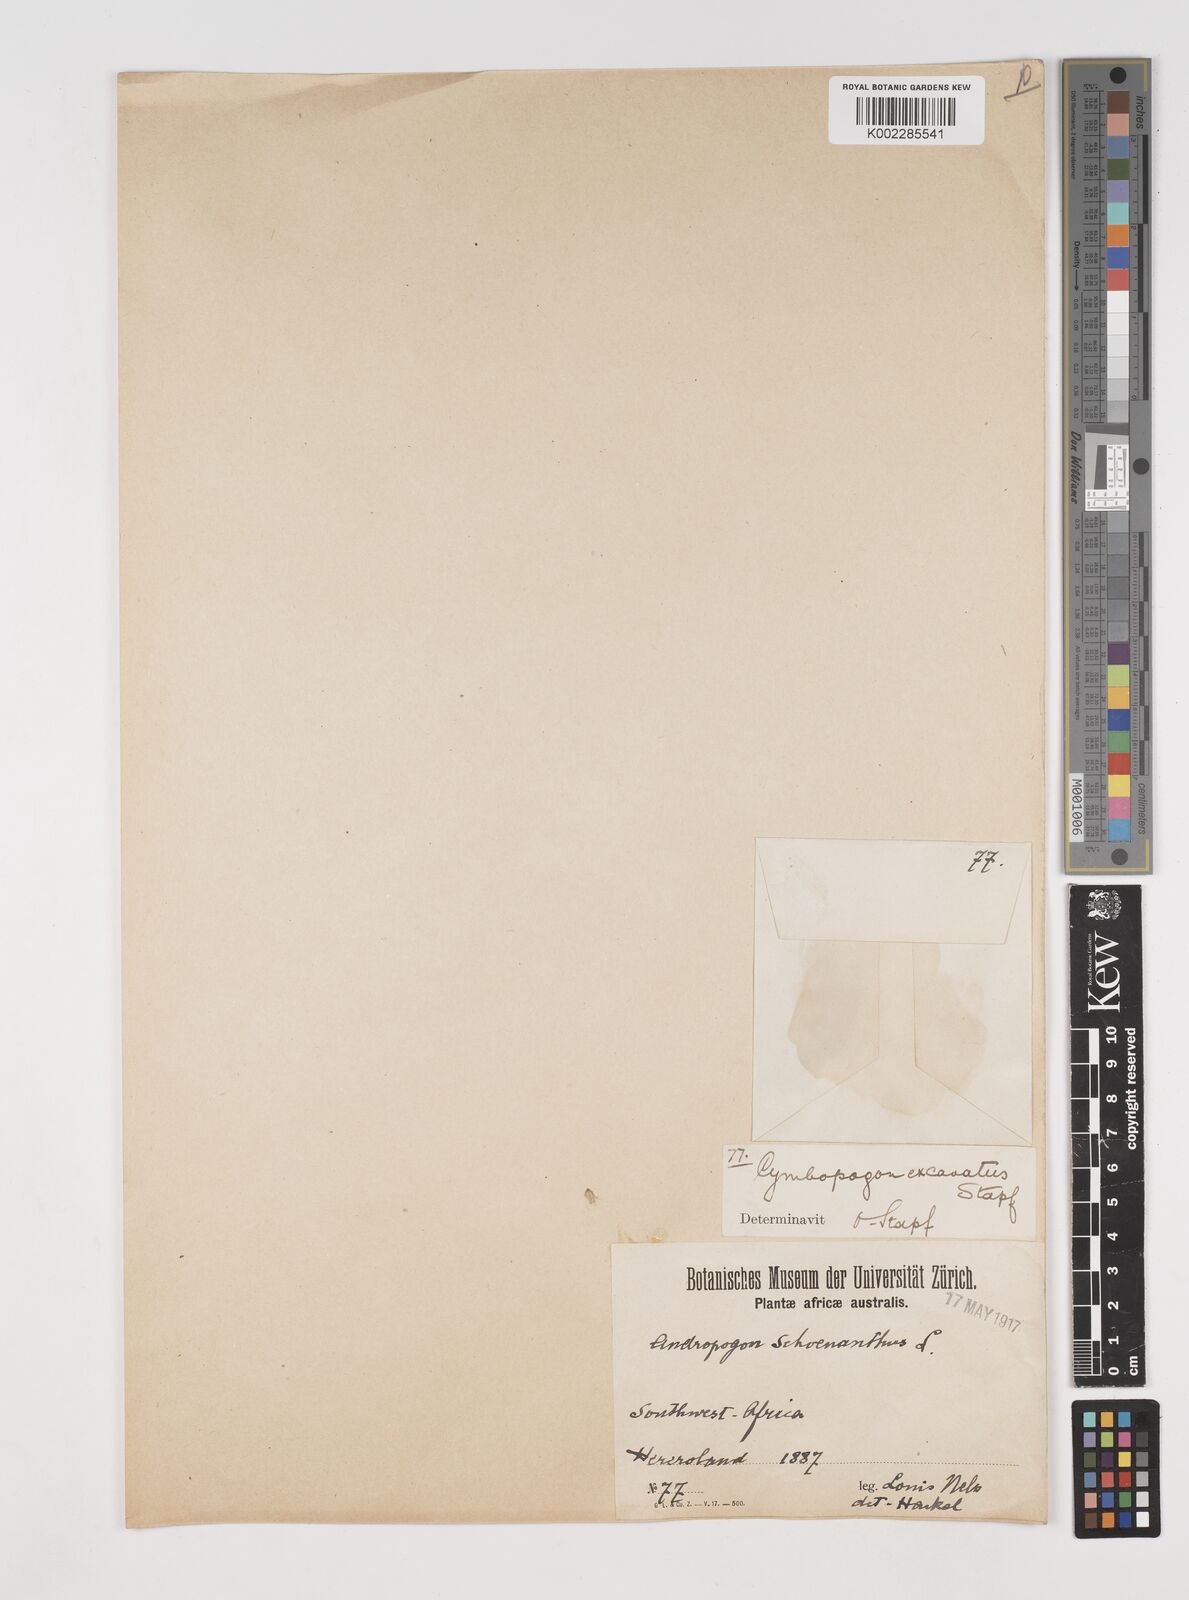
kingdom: Plantae
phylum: Tracheophyta
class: Liliopsida
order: Poales
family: Poaceae
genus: Cymbopogon
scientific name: Cymbopogon caesius
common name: Kachi grass
